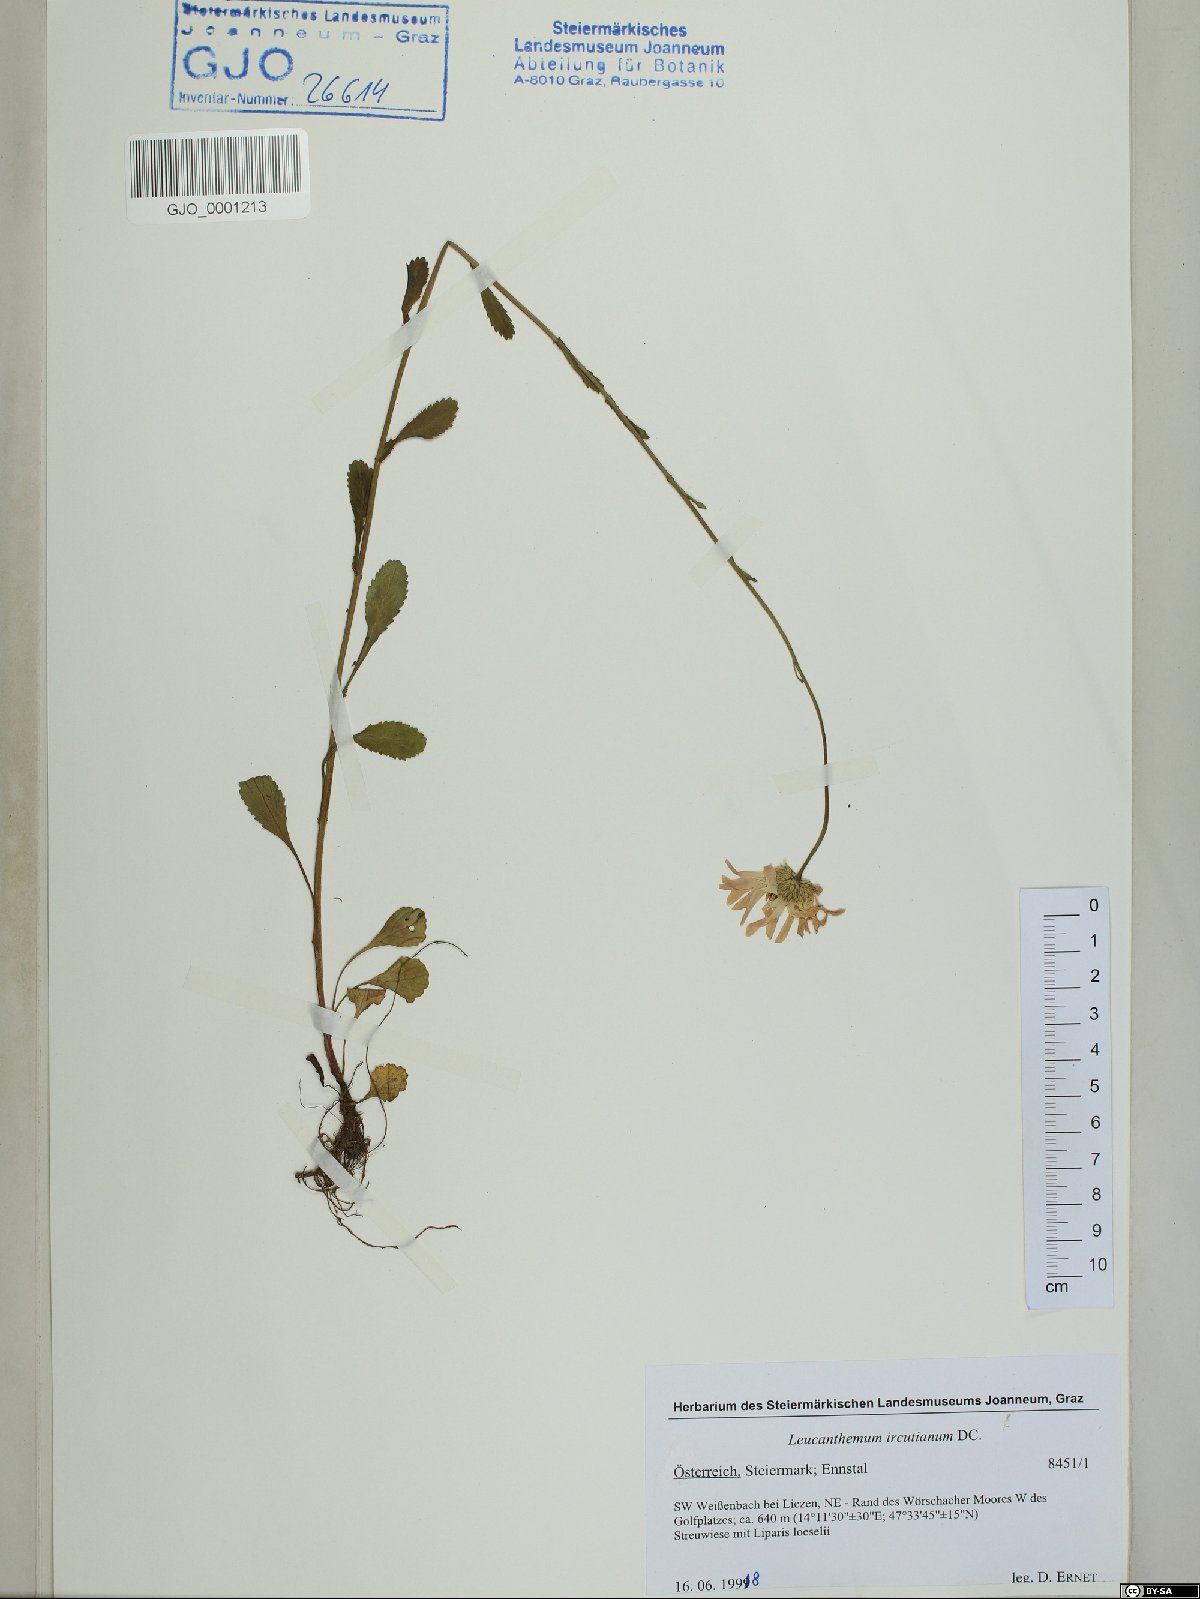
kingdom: Plantae
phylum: Tracheophyta
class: Magnoliopsida
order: Asterales
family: Asteraceae
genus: Leucanthemum
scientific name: Leucanthemum ircutianum
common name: Daisy
